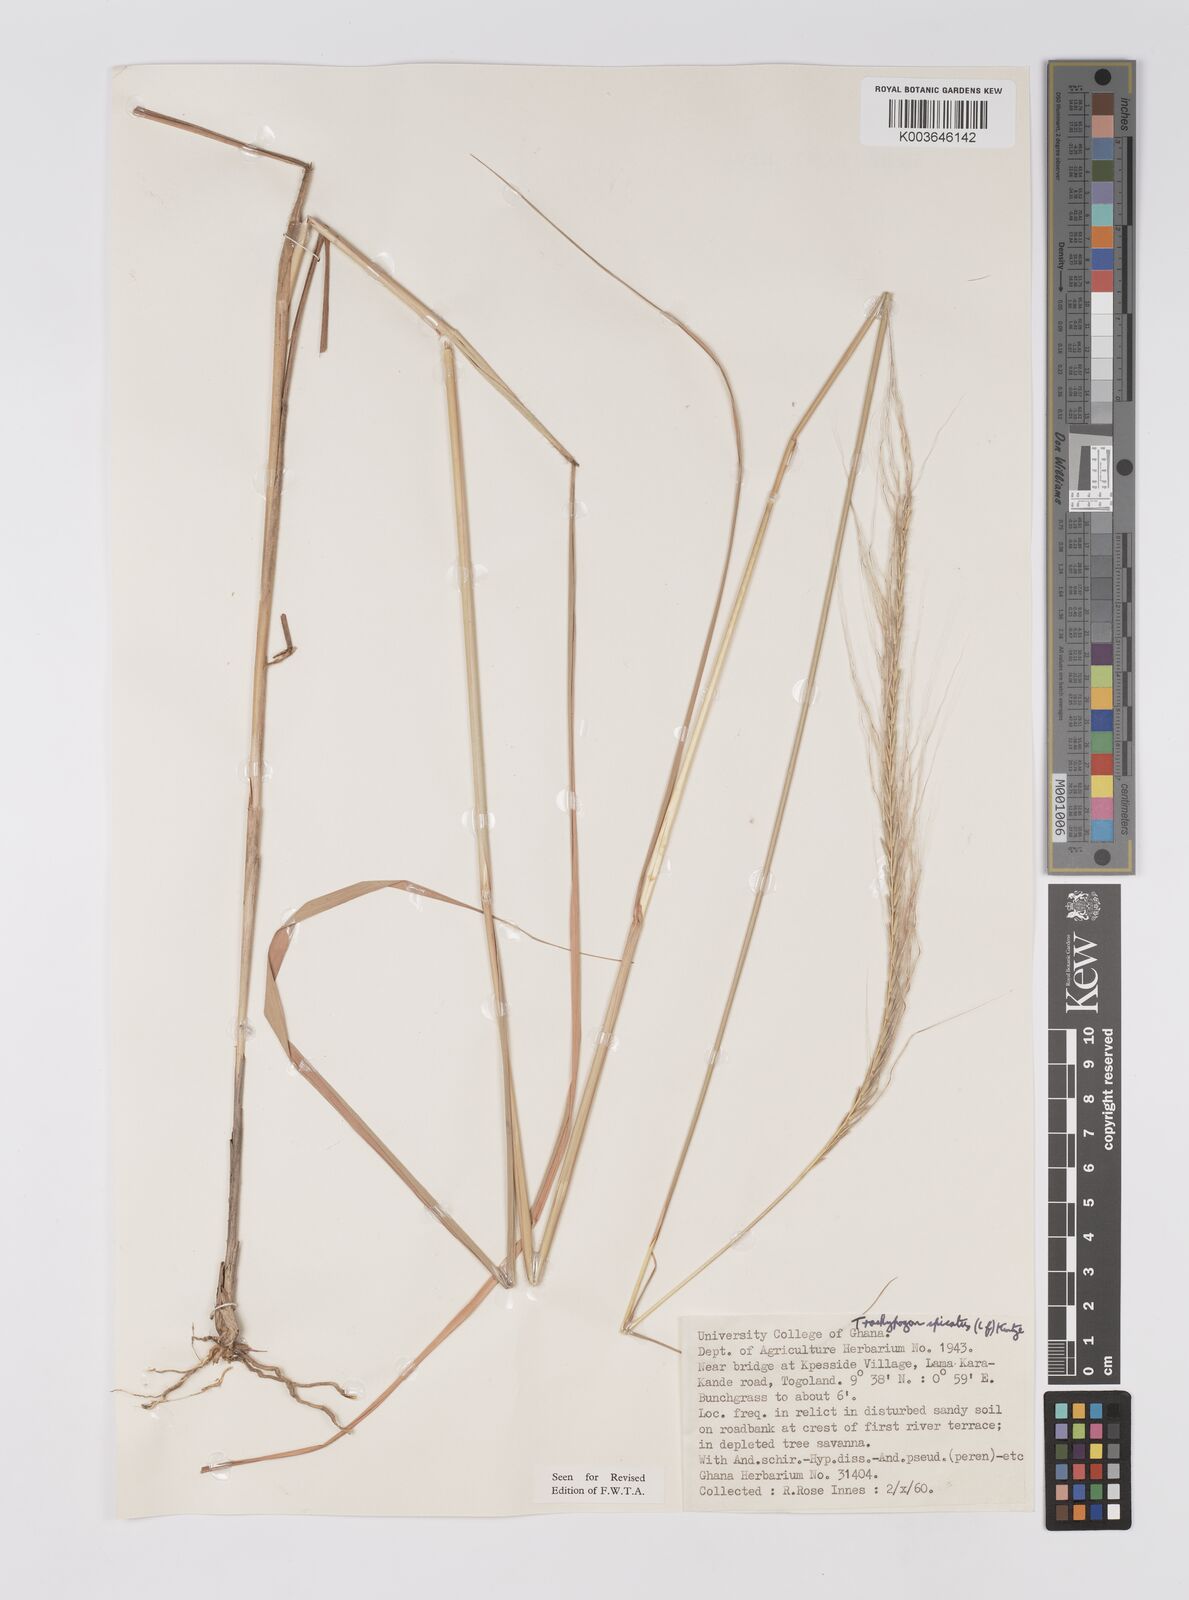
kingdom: Plantae
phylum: Tracheophyta
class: Liliopsida
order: Poales
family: Poaceae
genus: Trachypogon
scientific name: Trachypogon spicatus
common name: Crinkle-awn
